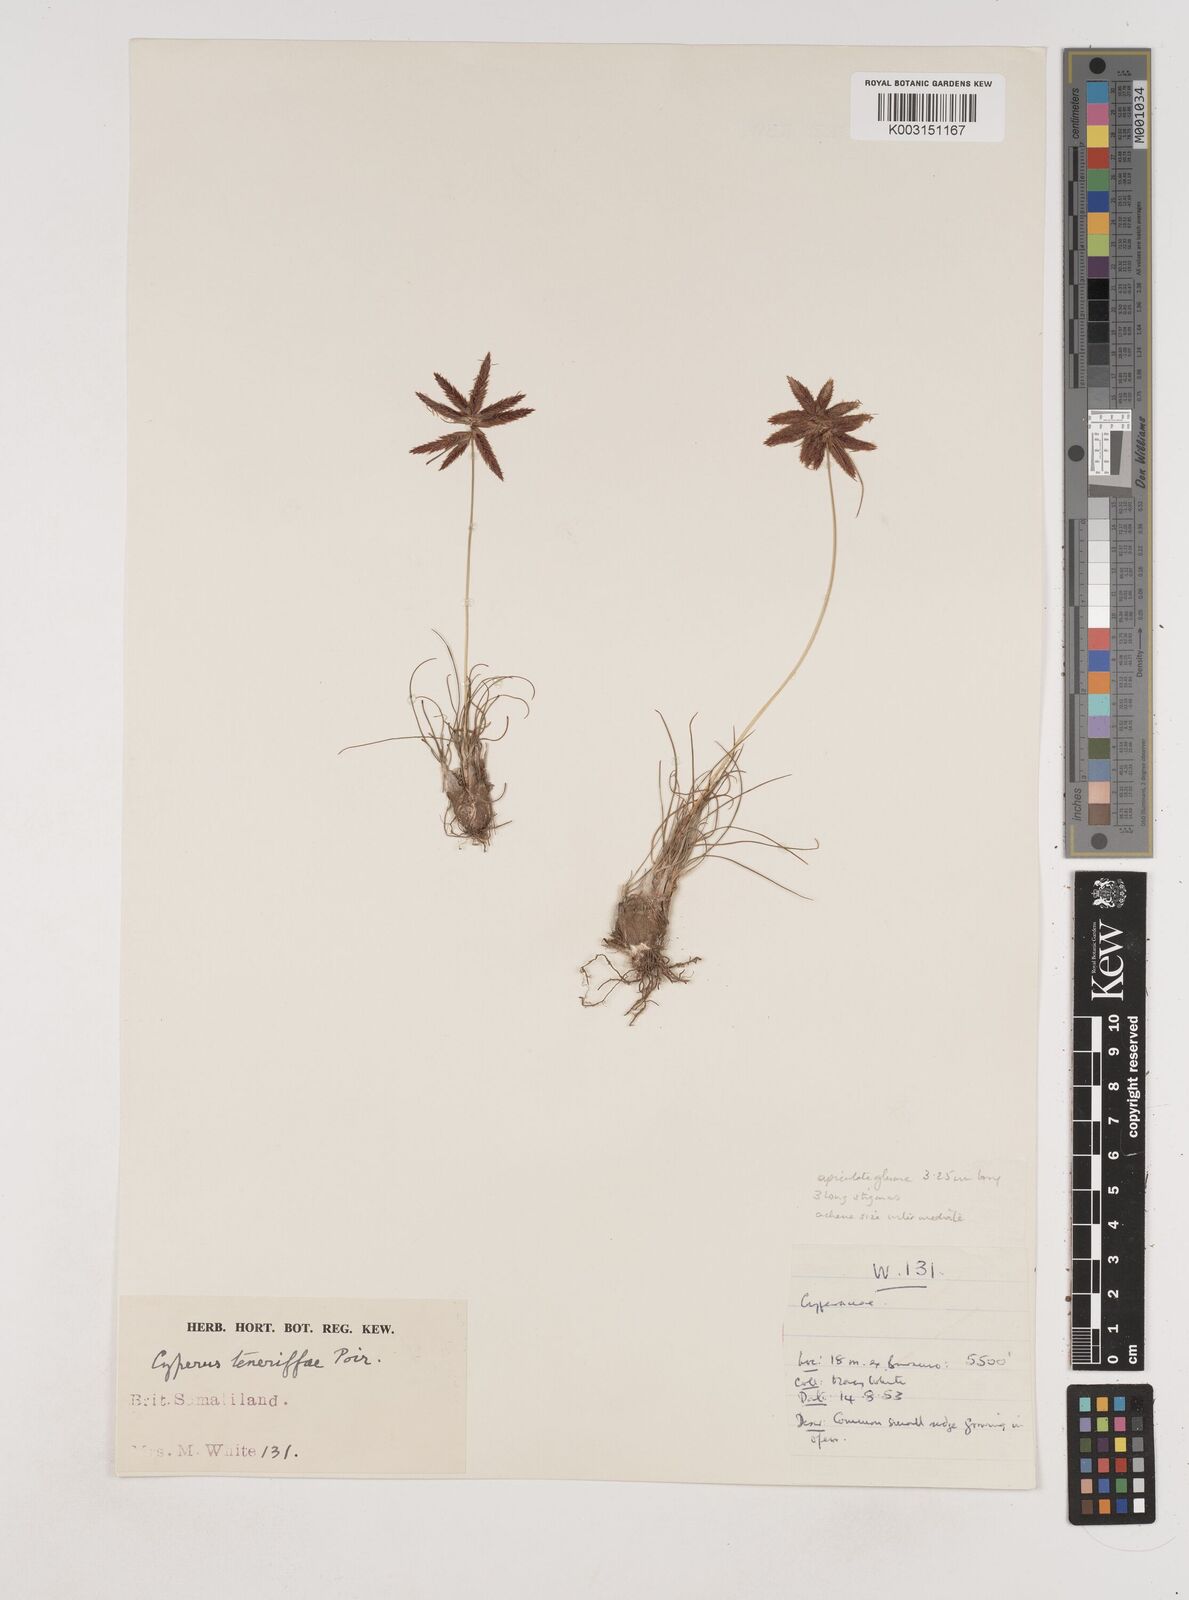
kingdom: Plantae
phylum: Tracheophyta
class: Liliopsida
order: Poales
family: Cyperaceae
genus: Cyperus
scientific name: Cyperus rubicundus
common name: Coco-grass
